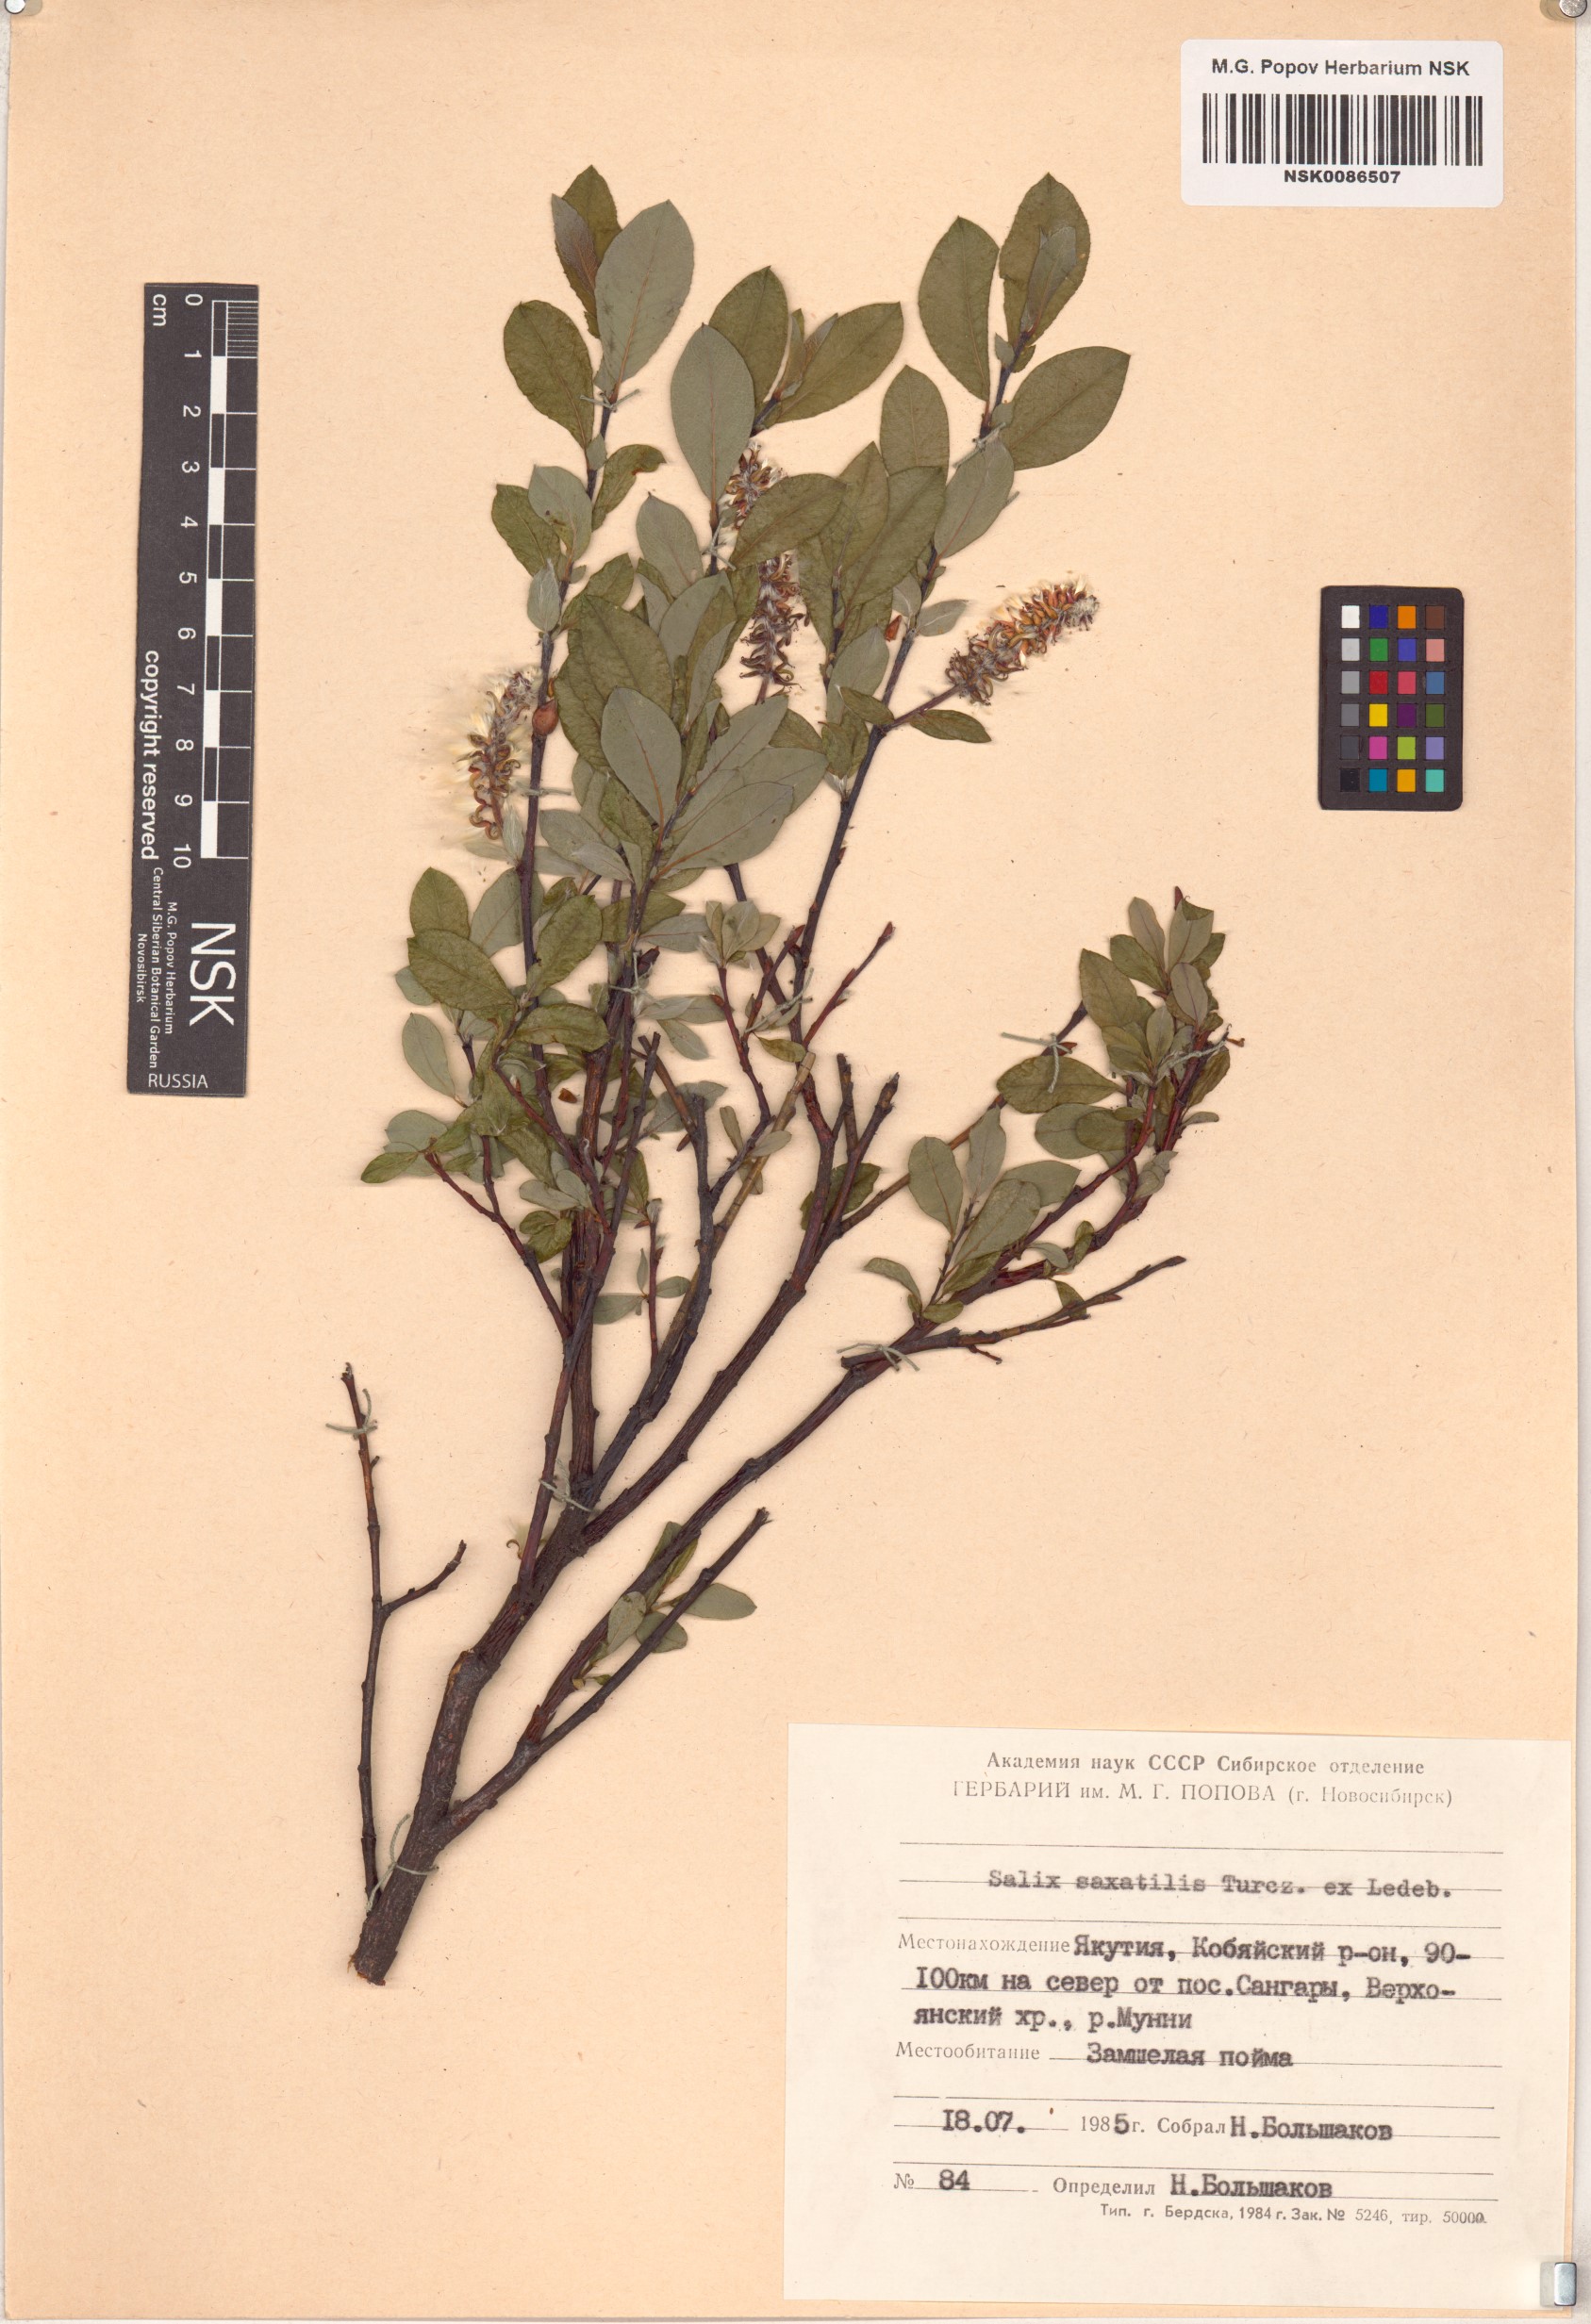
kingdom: Plantae
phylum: Tracheophyta
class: Magnoliopsida
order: Malpighiales
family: Salicaceae
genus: Salix
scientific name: Salix saxatilis
